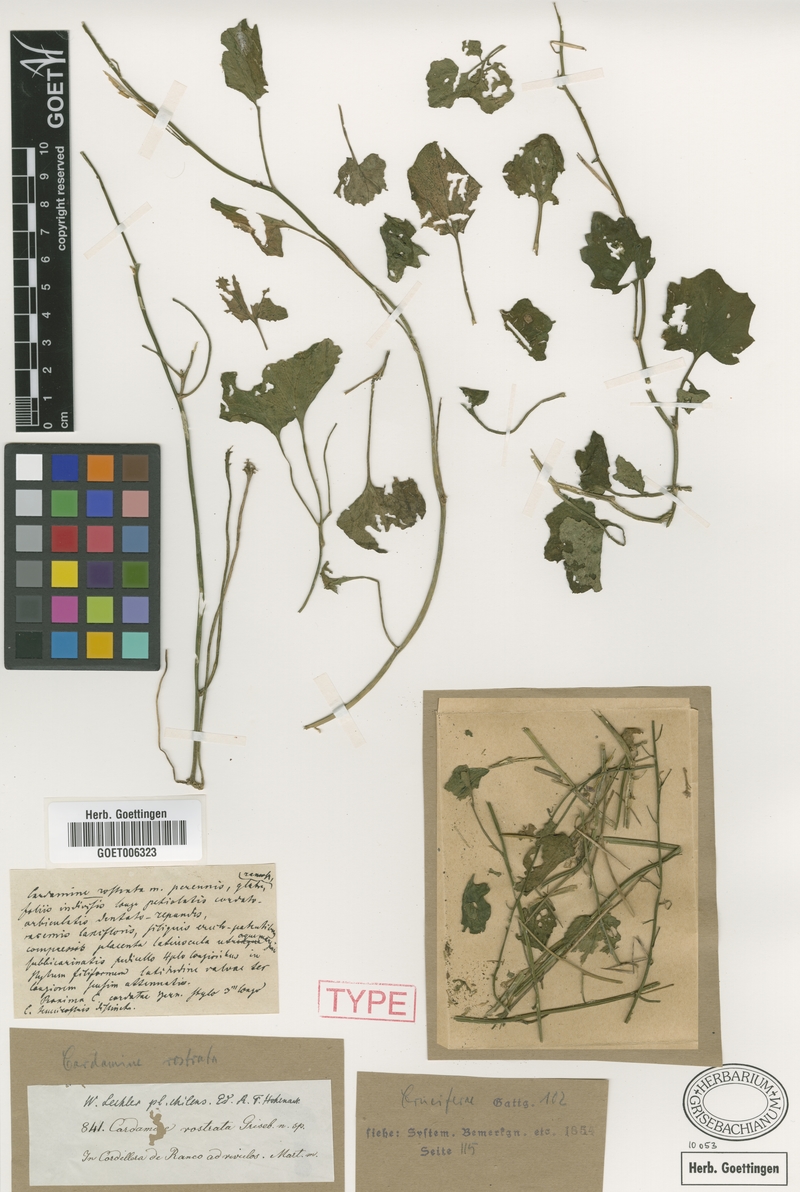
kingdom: Plantae
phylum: Tracheophyta
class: Magnoliopsida
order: Brassicales
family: Brassicaceae
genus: Cardamine
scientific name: Cardamine rostrata
